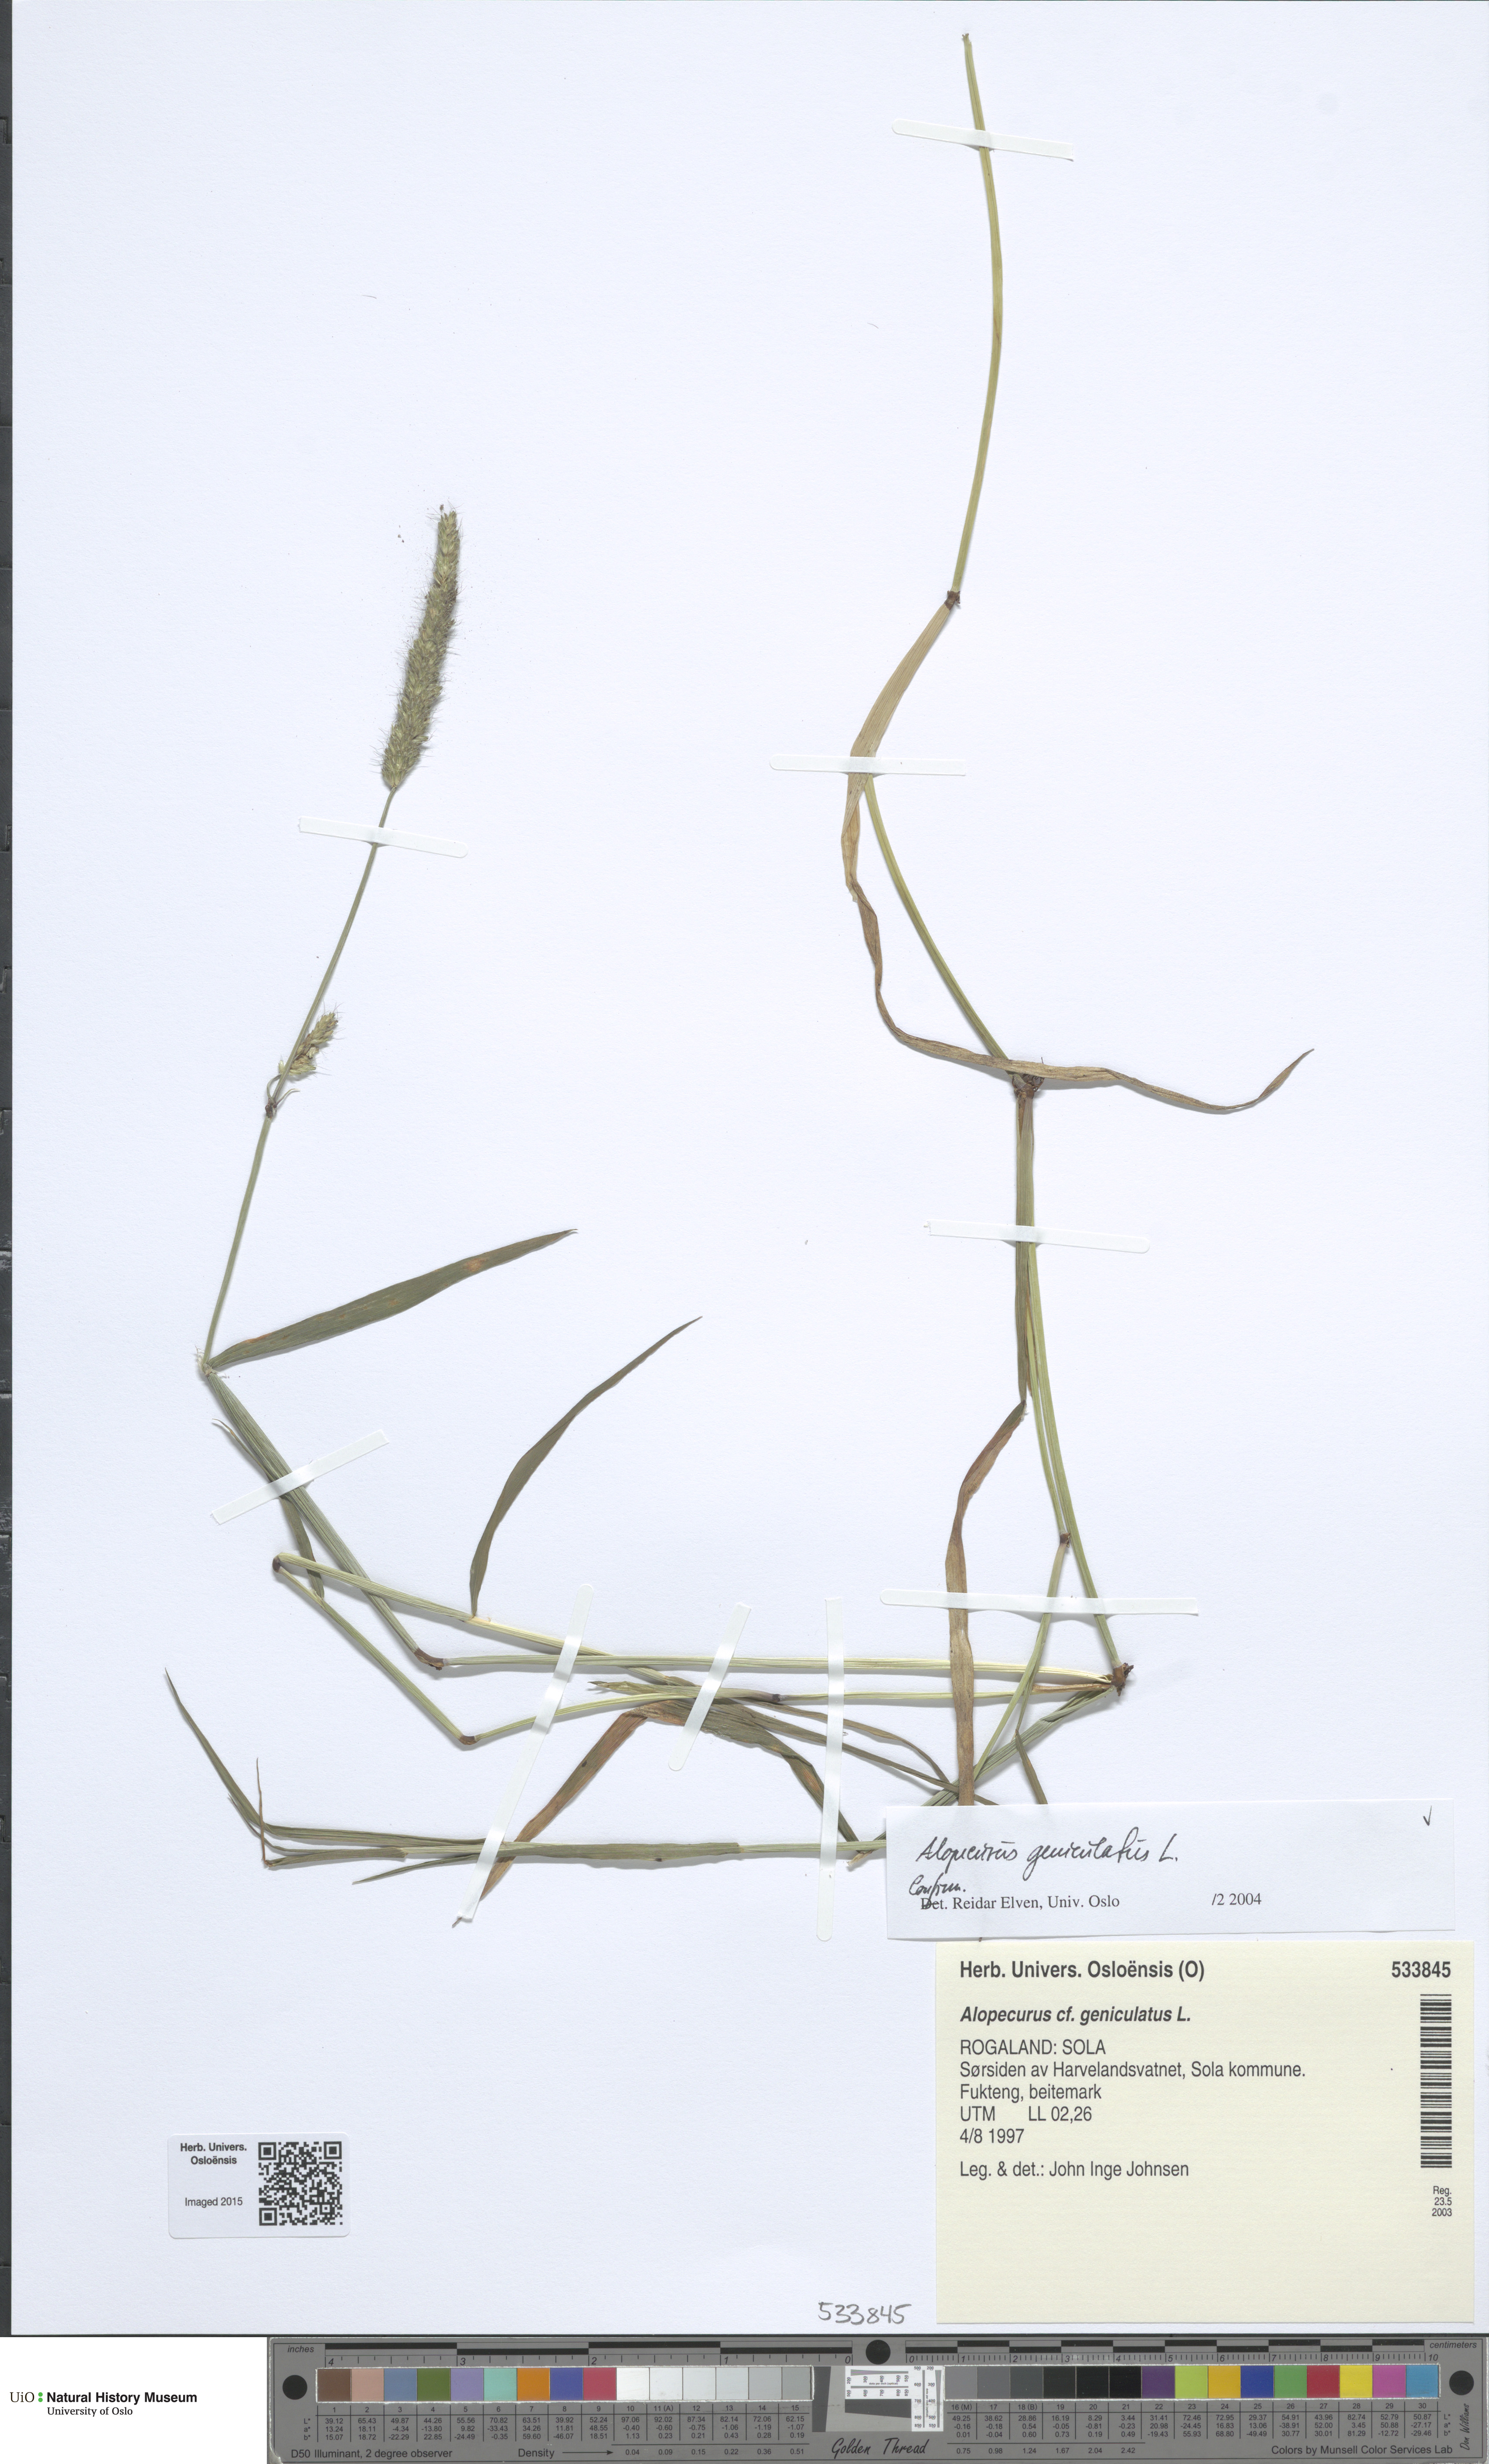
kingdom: Plantae
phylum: Tracheophyta
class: Liliopsida
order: Poales
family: Poaceae
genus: Alopecurus
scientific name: Alopecurus geniculatus
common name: Water foxtail
